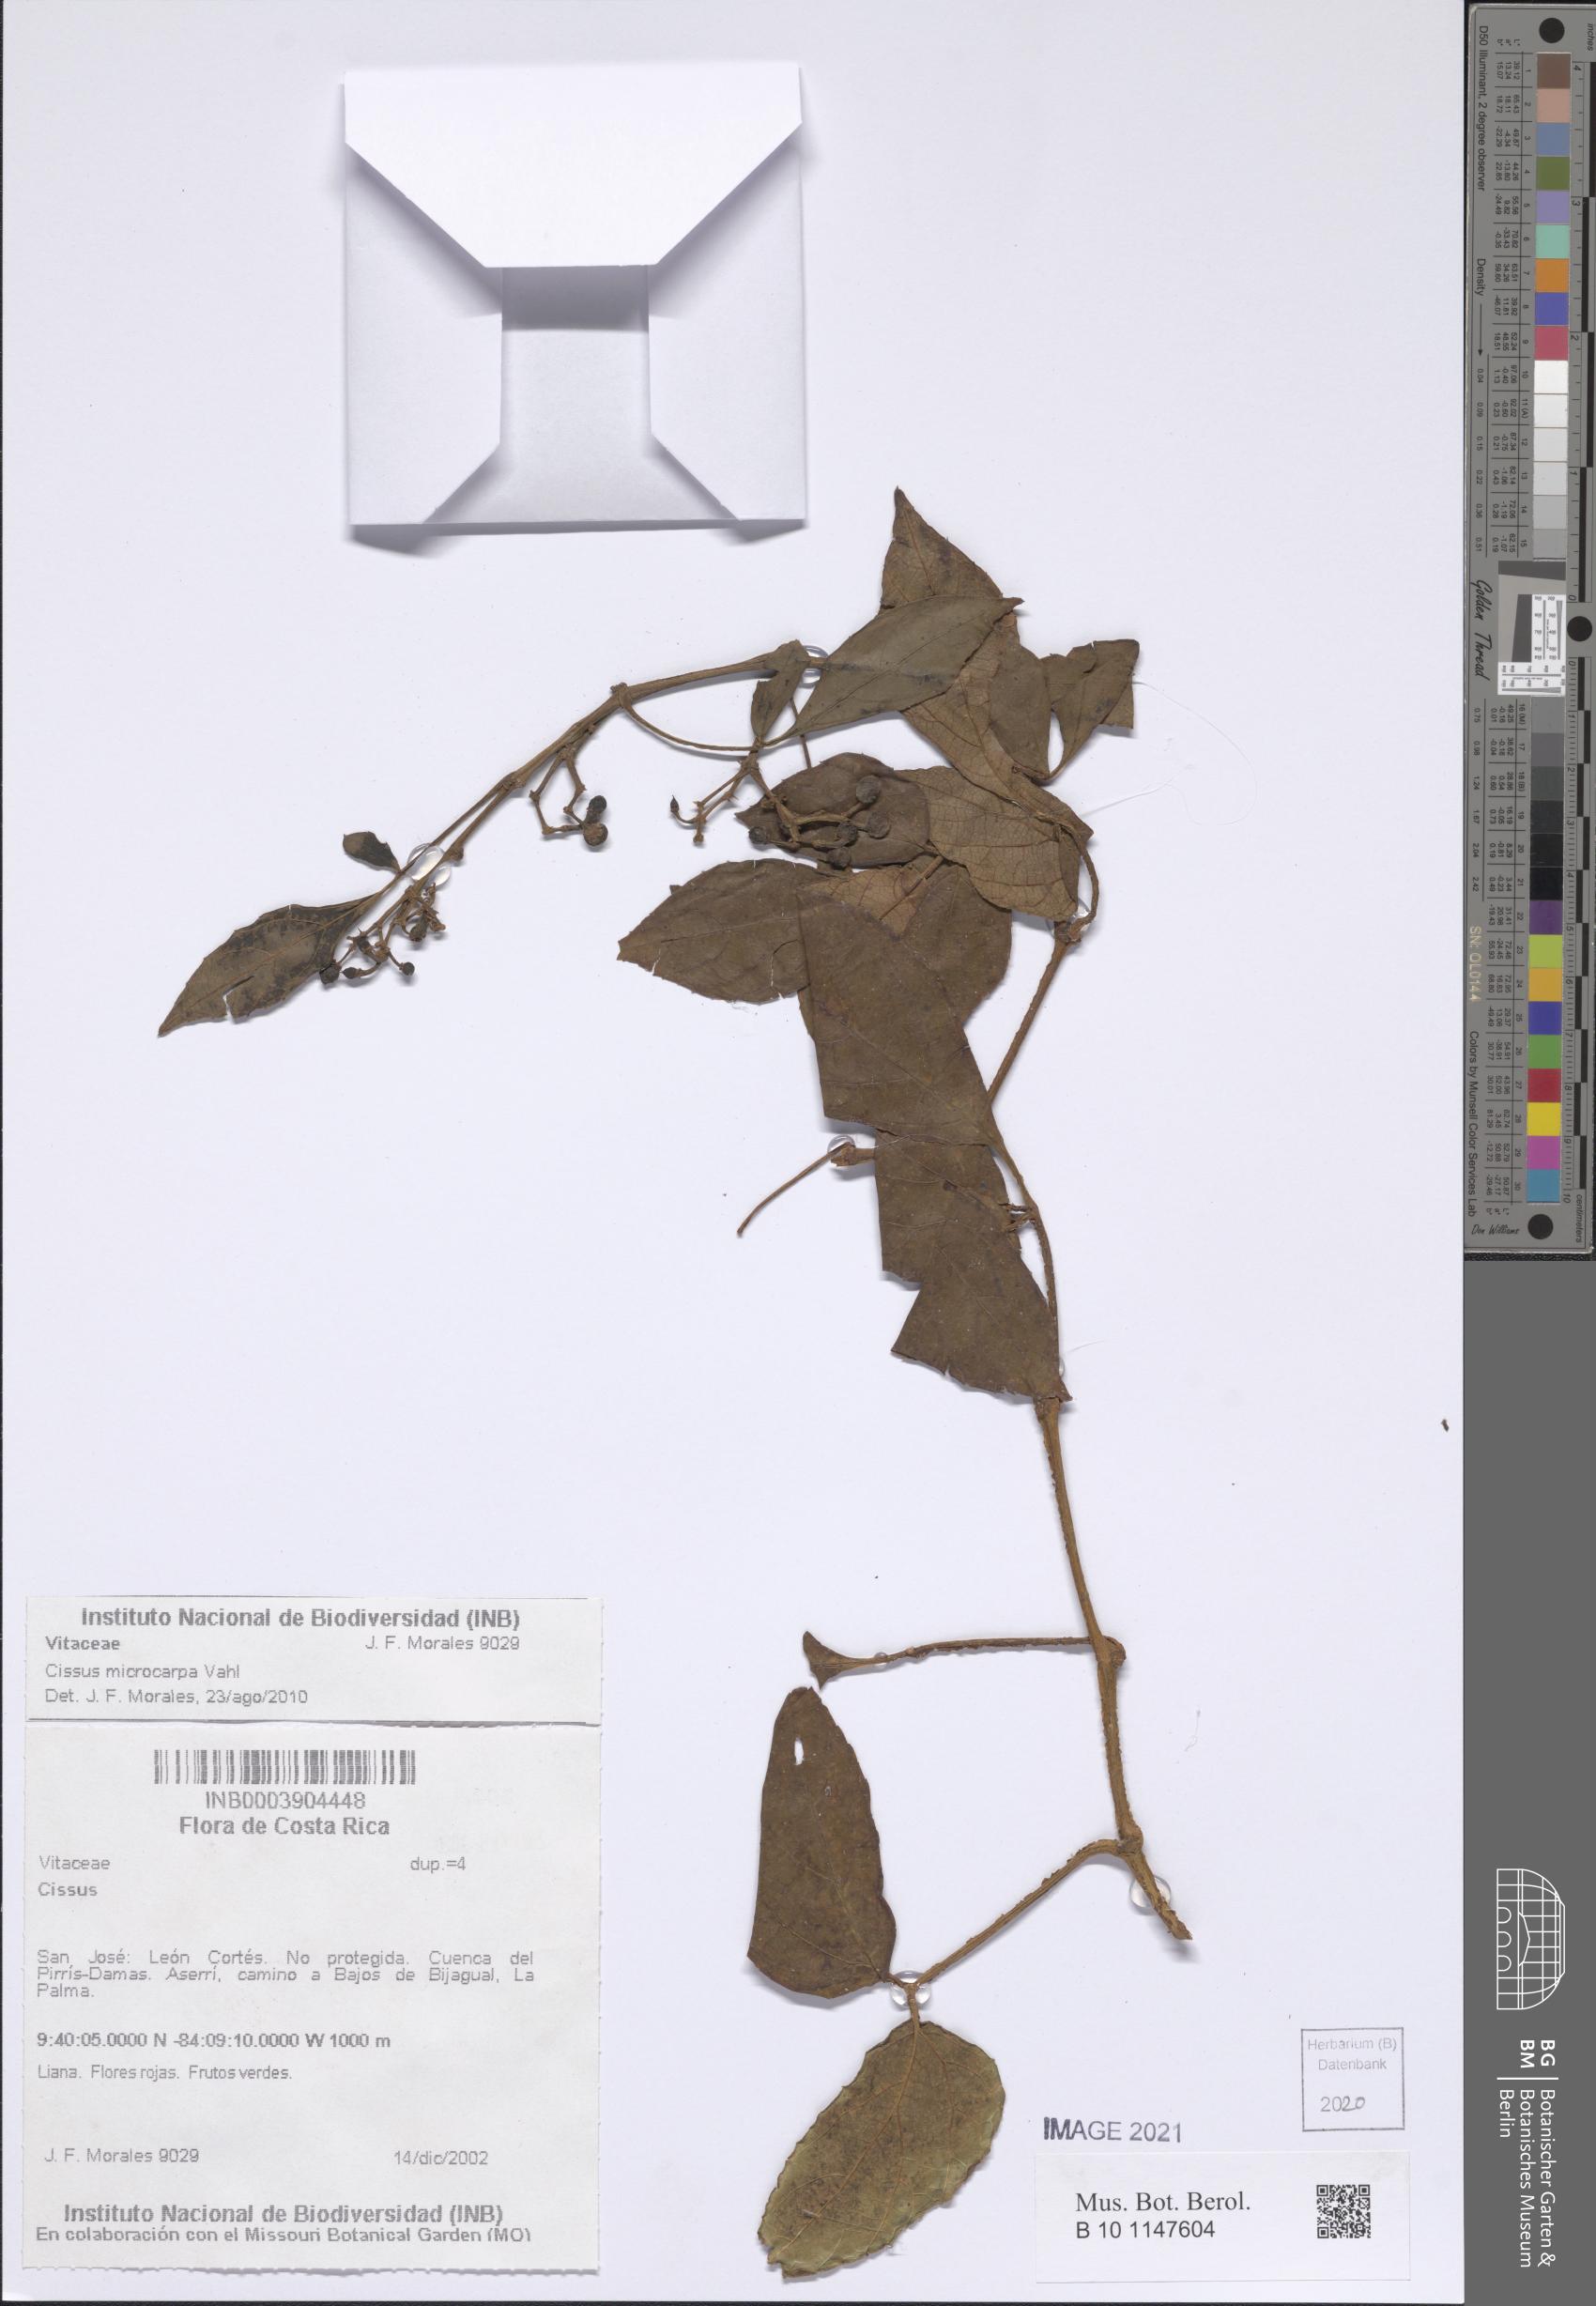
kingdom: Plantae
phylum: Tracheophyta
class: Magnoliopsida
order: Vitales
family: Vitaceae
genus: Cissus
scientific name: Cissus microcarpa
